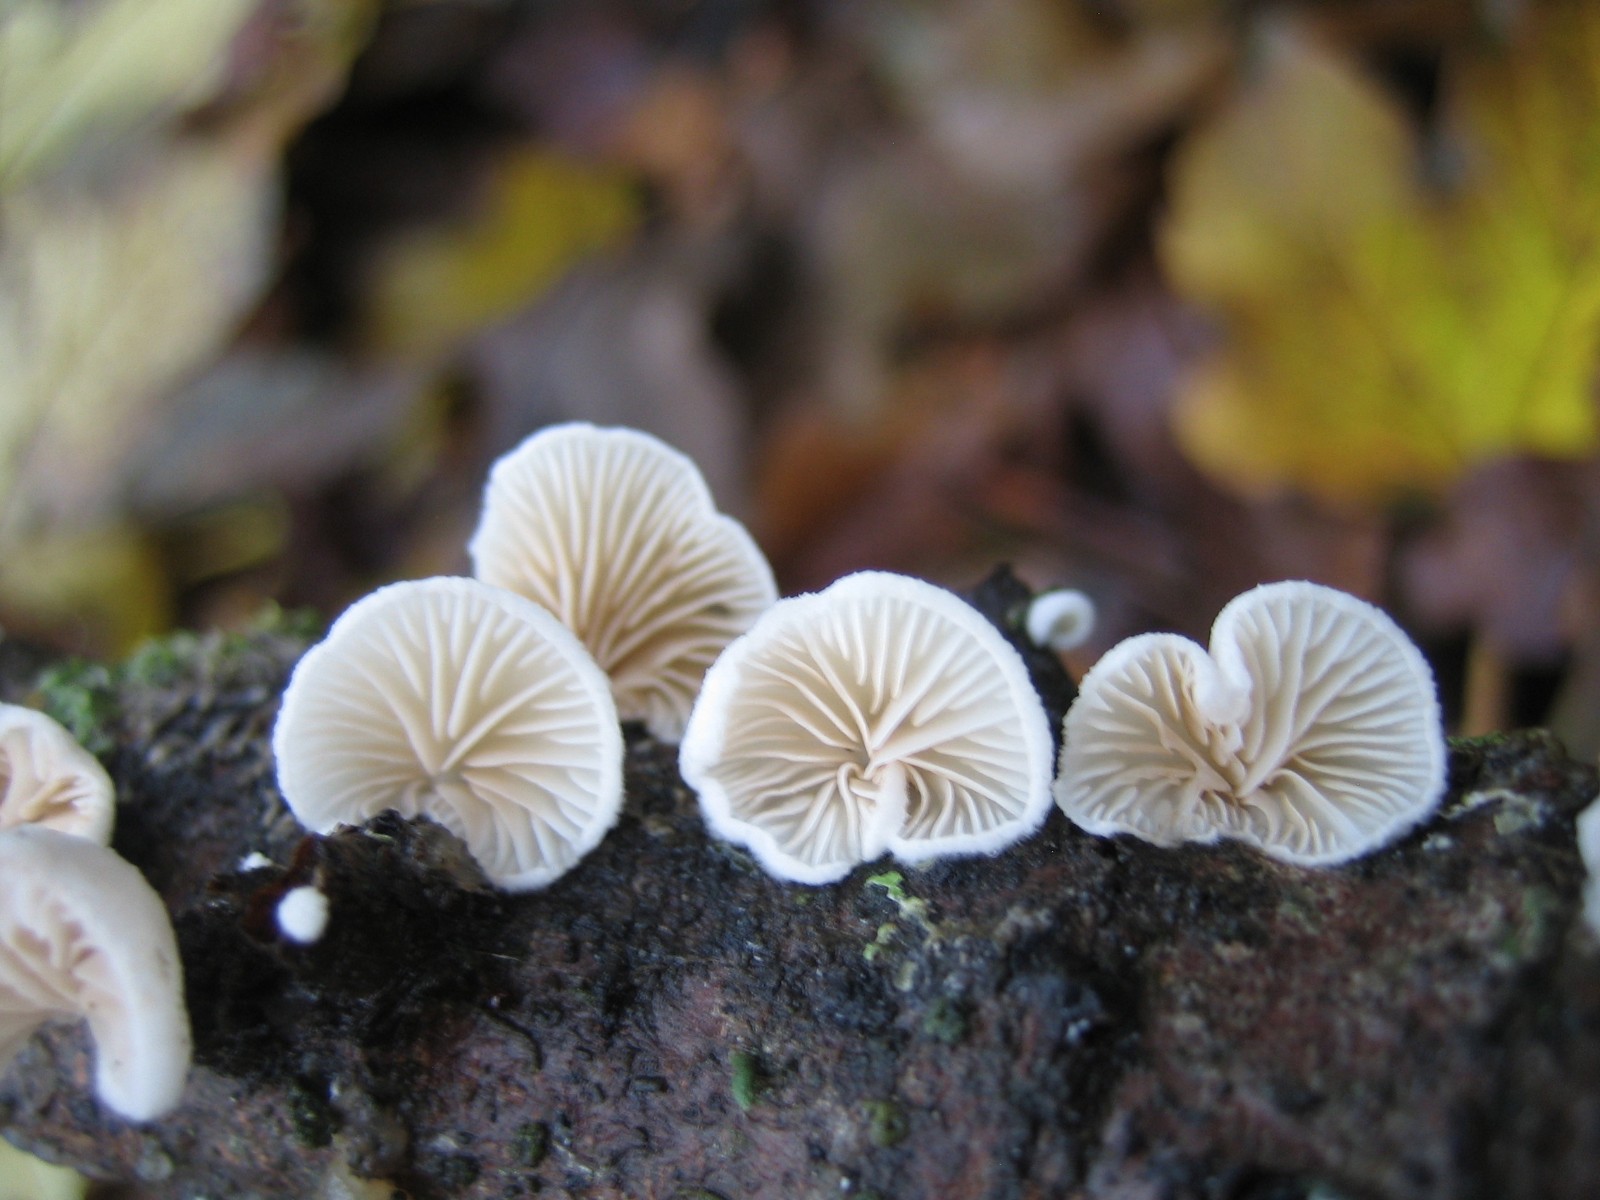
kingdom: Fungi
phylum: Basidiomycota
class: Agaricomycetes
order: Agaricales
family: Crepidotaceae
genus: Crepidotus
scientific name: Crepidotus
